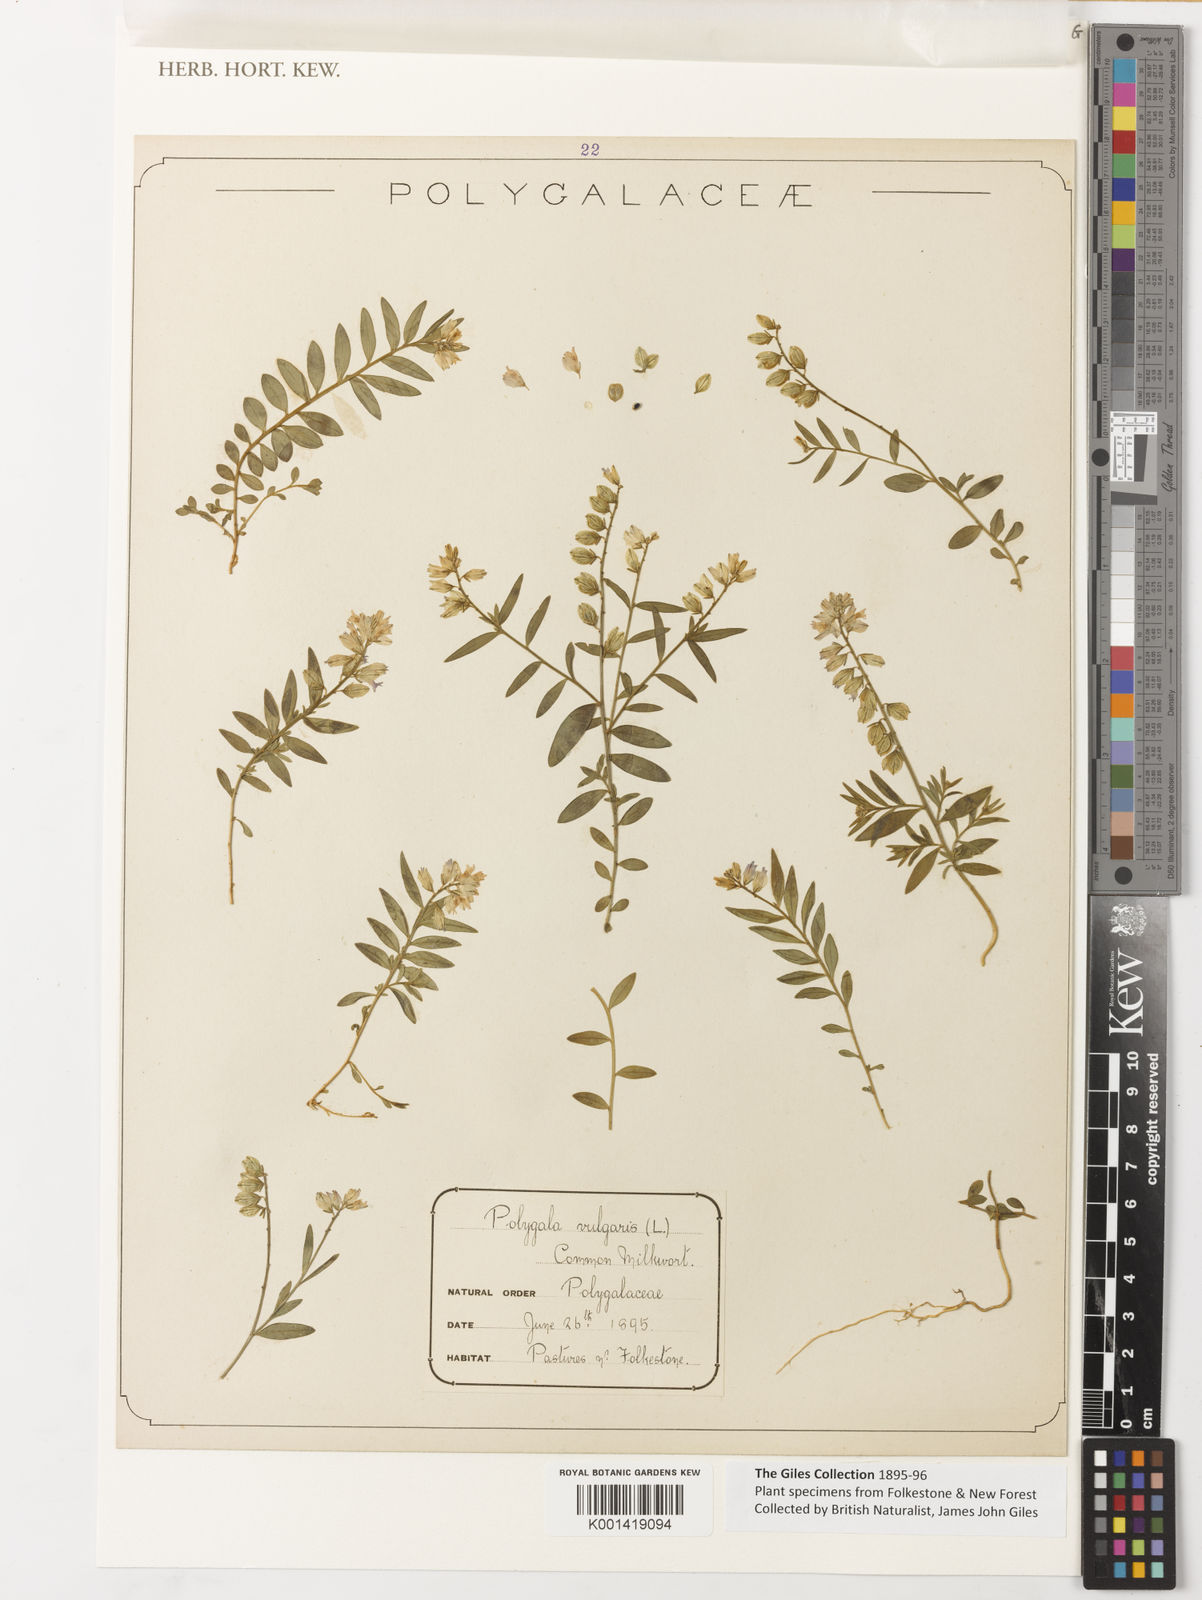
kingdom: Plantae
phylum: Tracheophyta
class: Magnoliopsida
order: Fabales
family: Polygalaceae
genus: Polygala
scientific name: Polygala vulgaris
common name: Common milkwort
